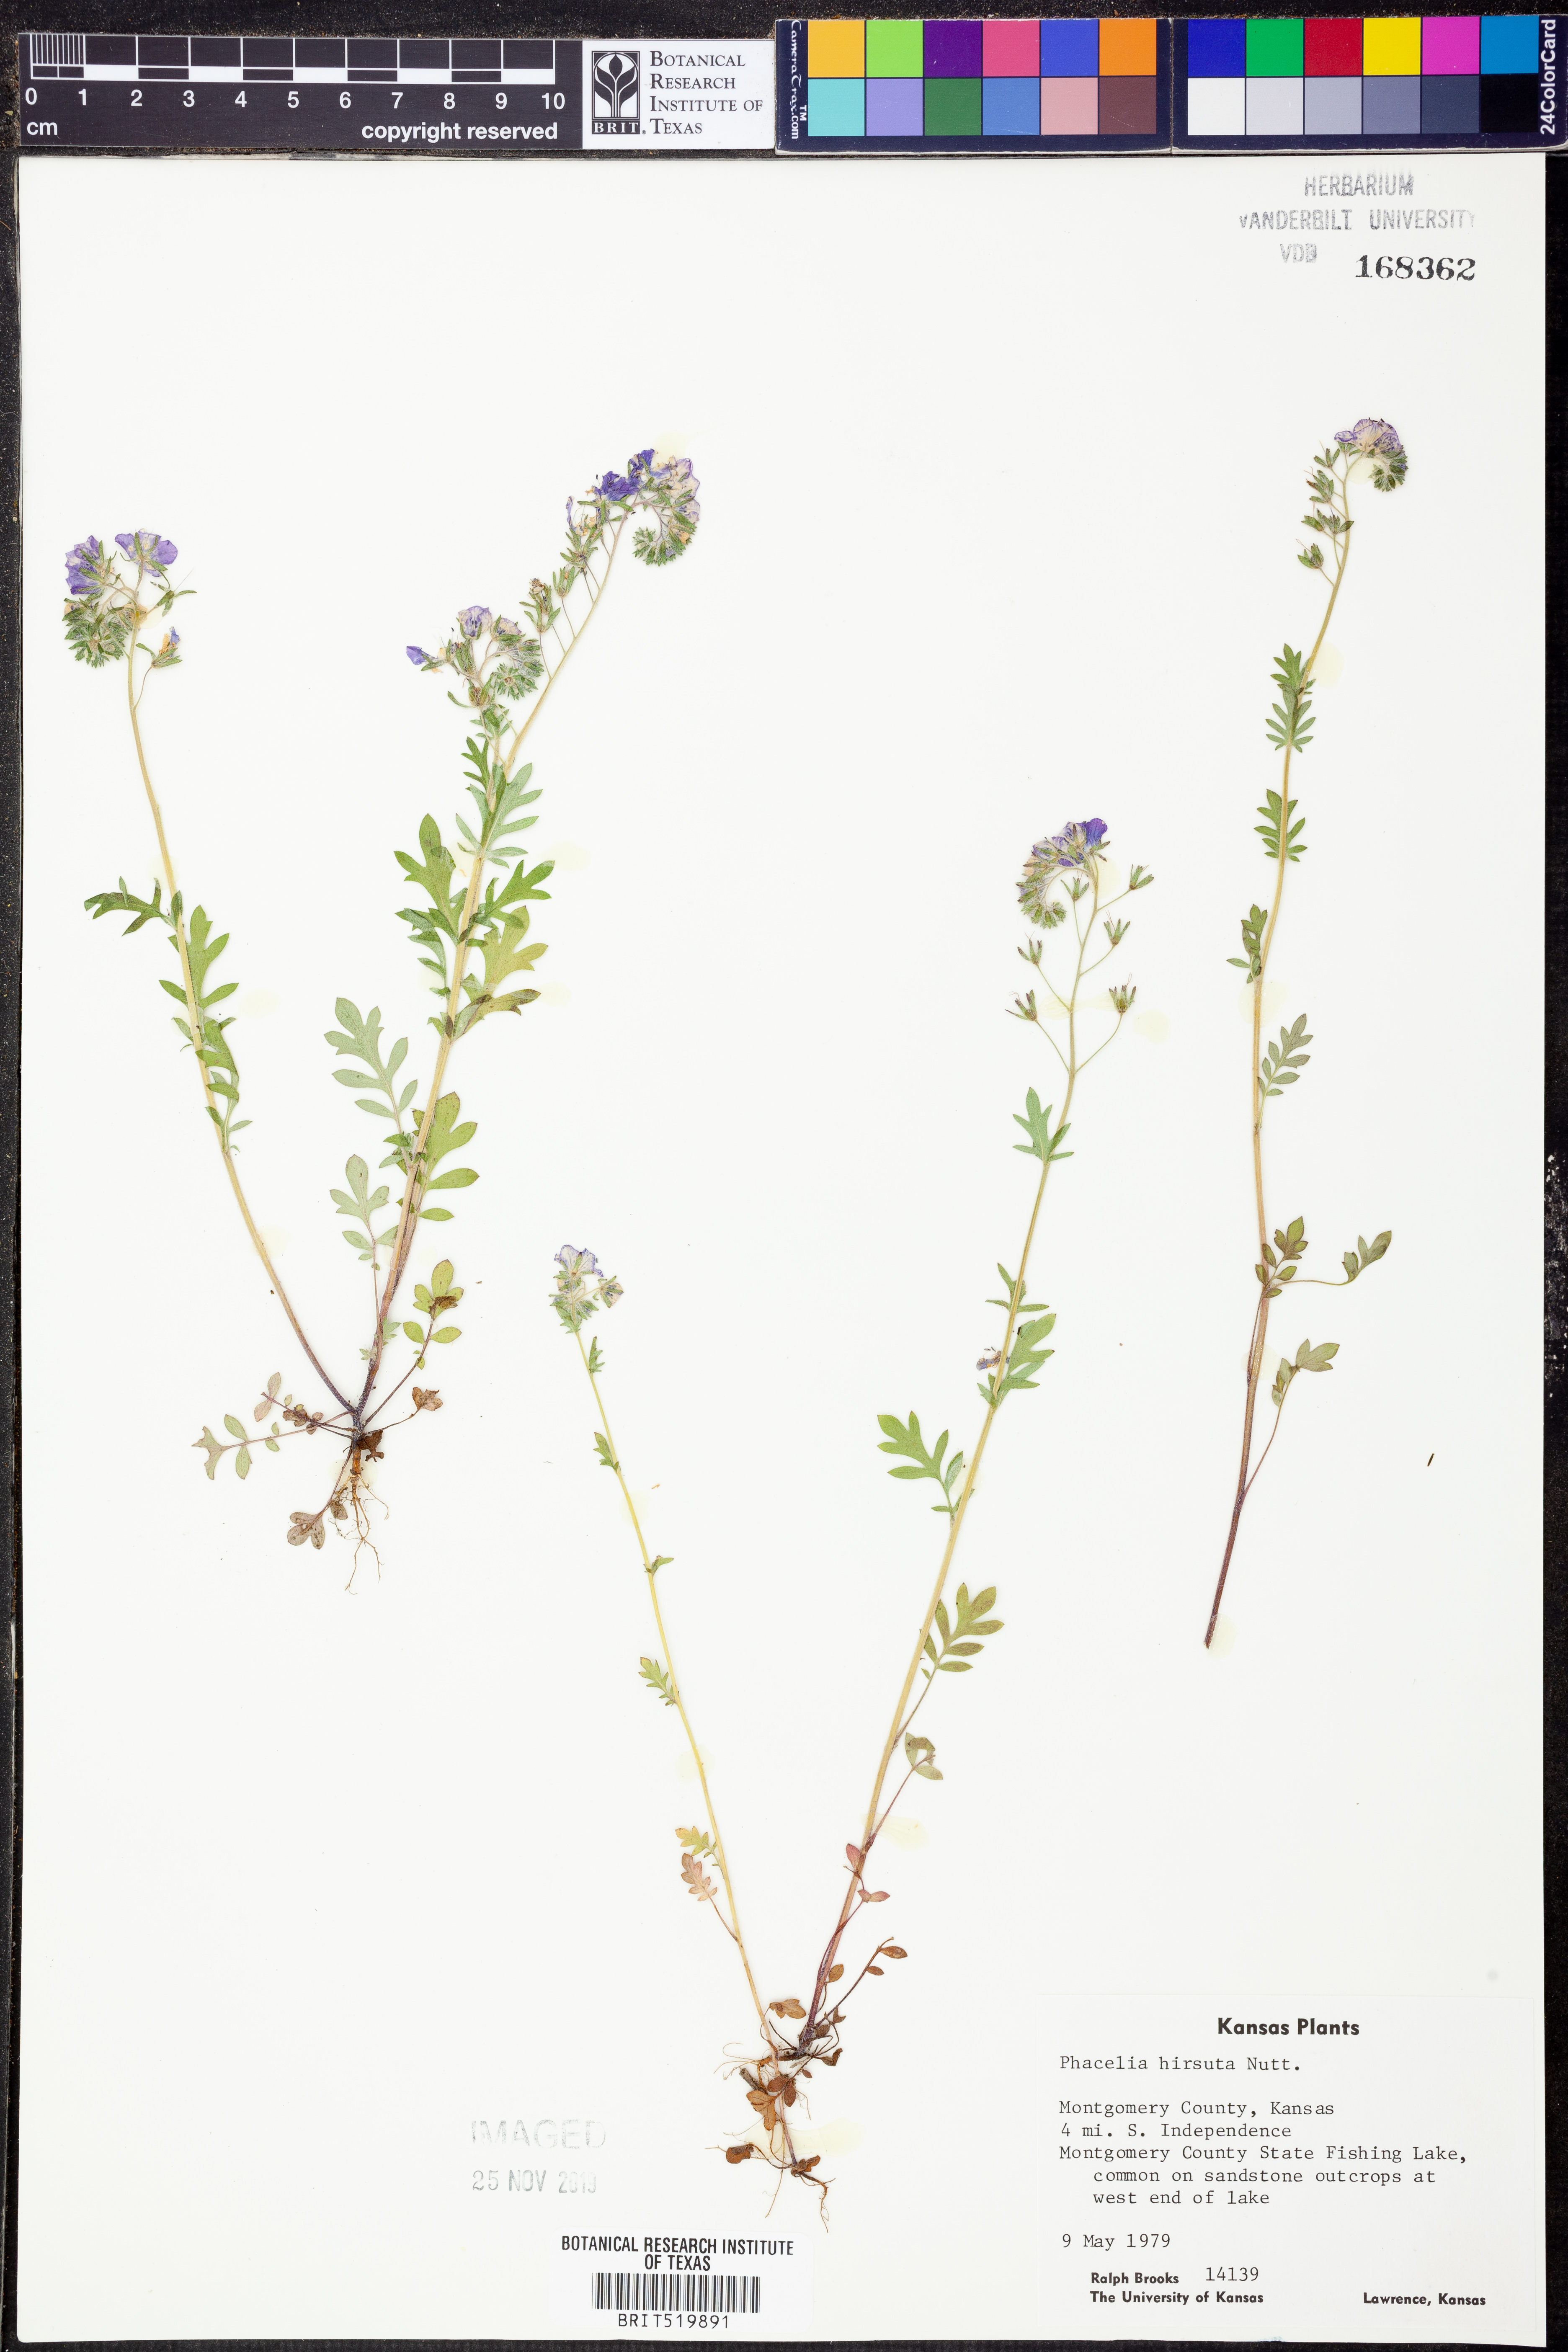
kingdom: Plantae
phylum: Tracheophyta
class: Magnoliopsida
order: Boraginales
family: Hydrophyllaceae
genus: Phacelia
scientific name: Phacelia hirsuta
